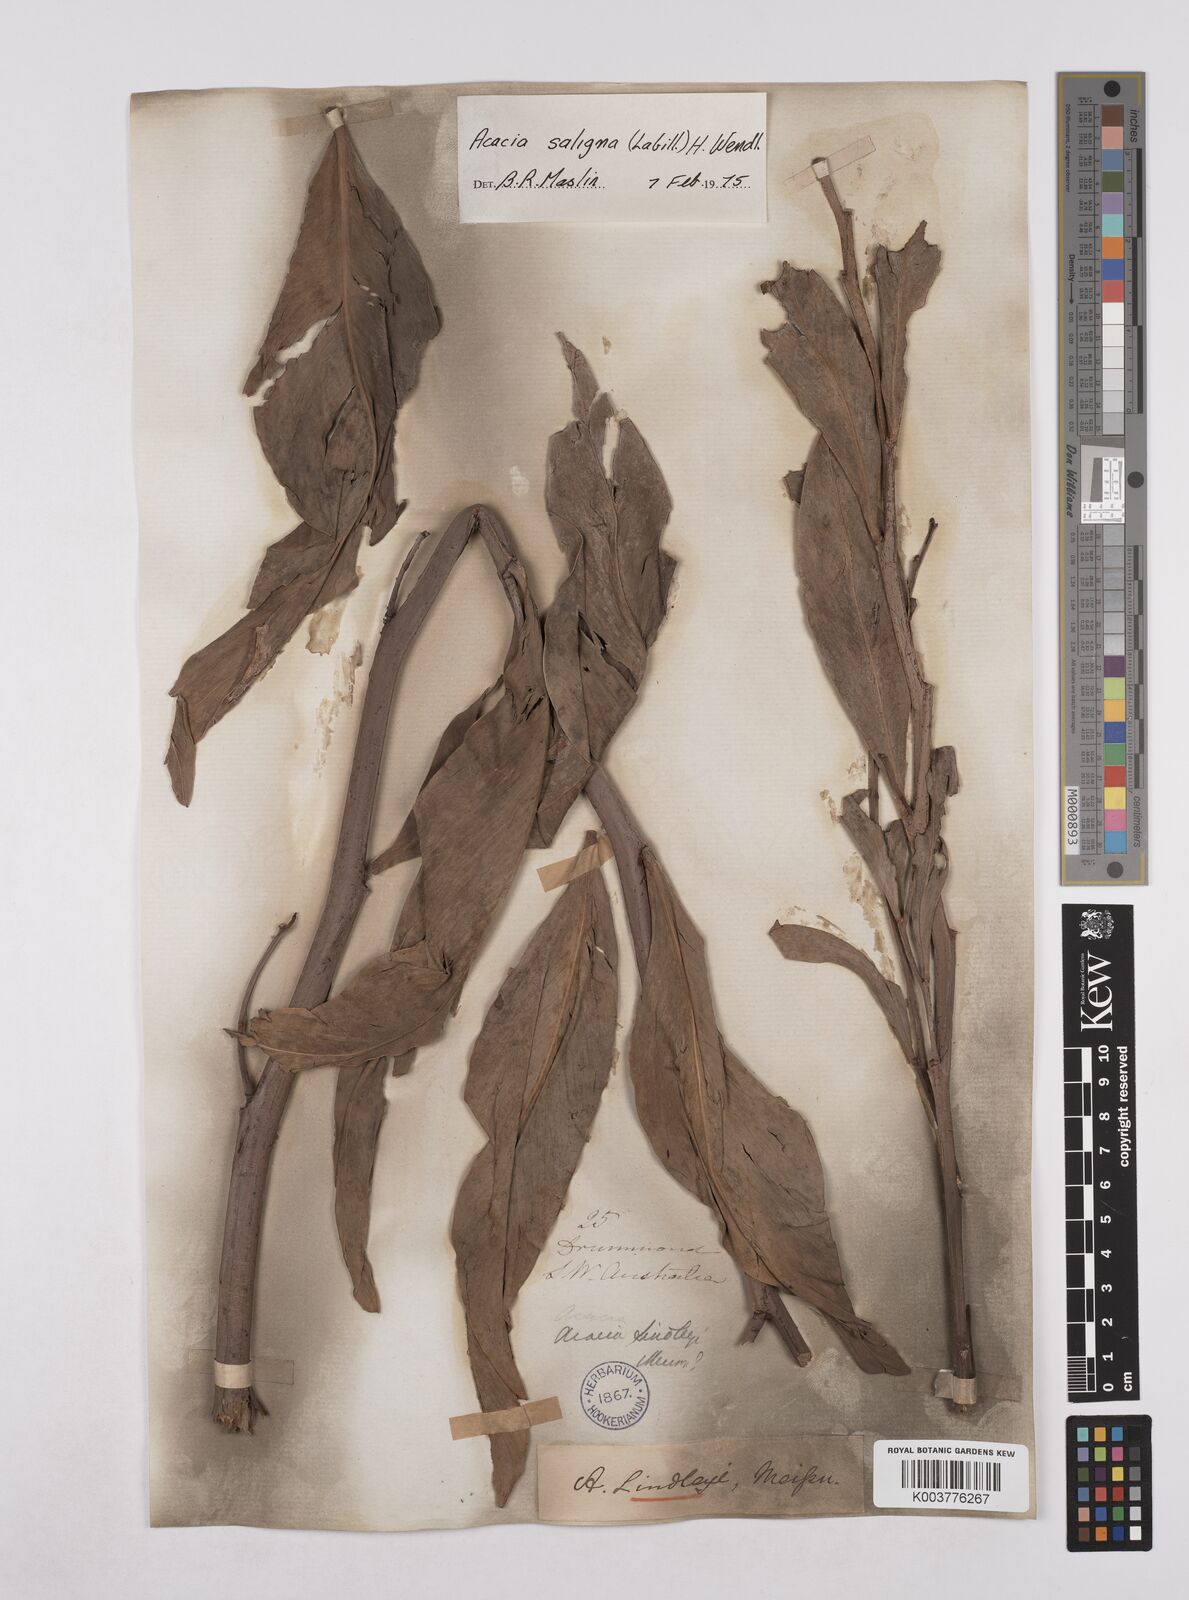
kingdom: Plantae
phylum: Tracheophyta
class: Magnoliopsida
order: Fabales
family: Fabaceae
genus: Acacia
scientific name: Acacia saligna
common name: Orange wattle
